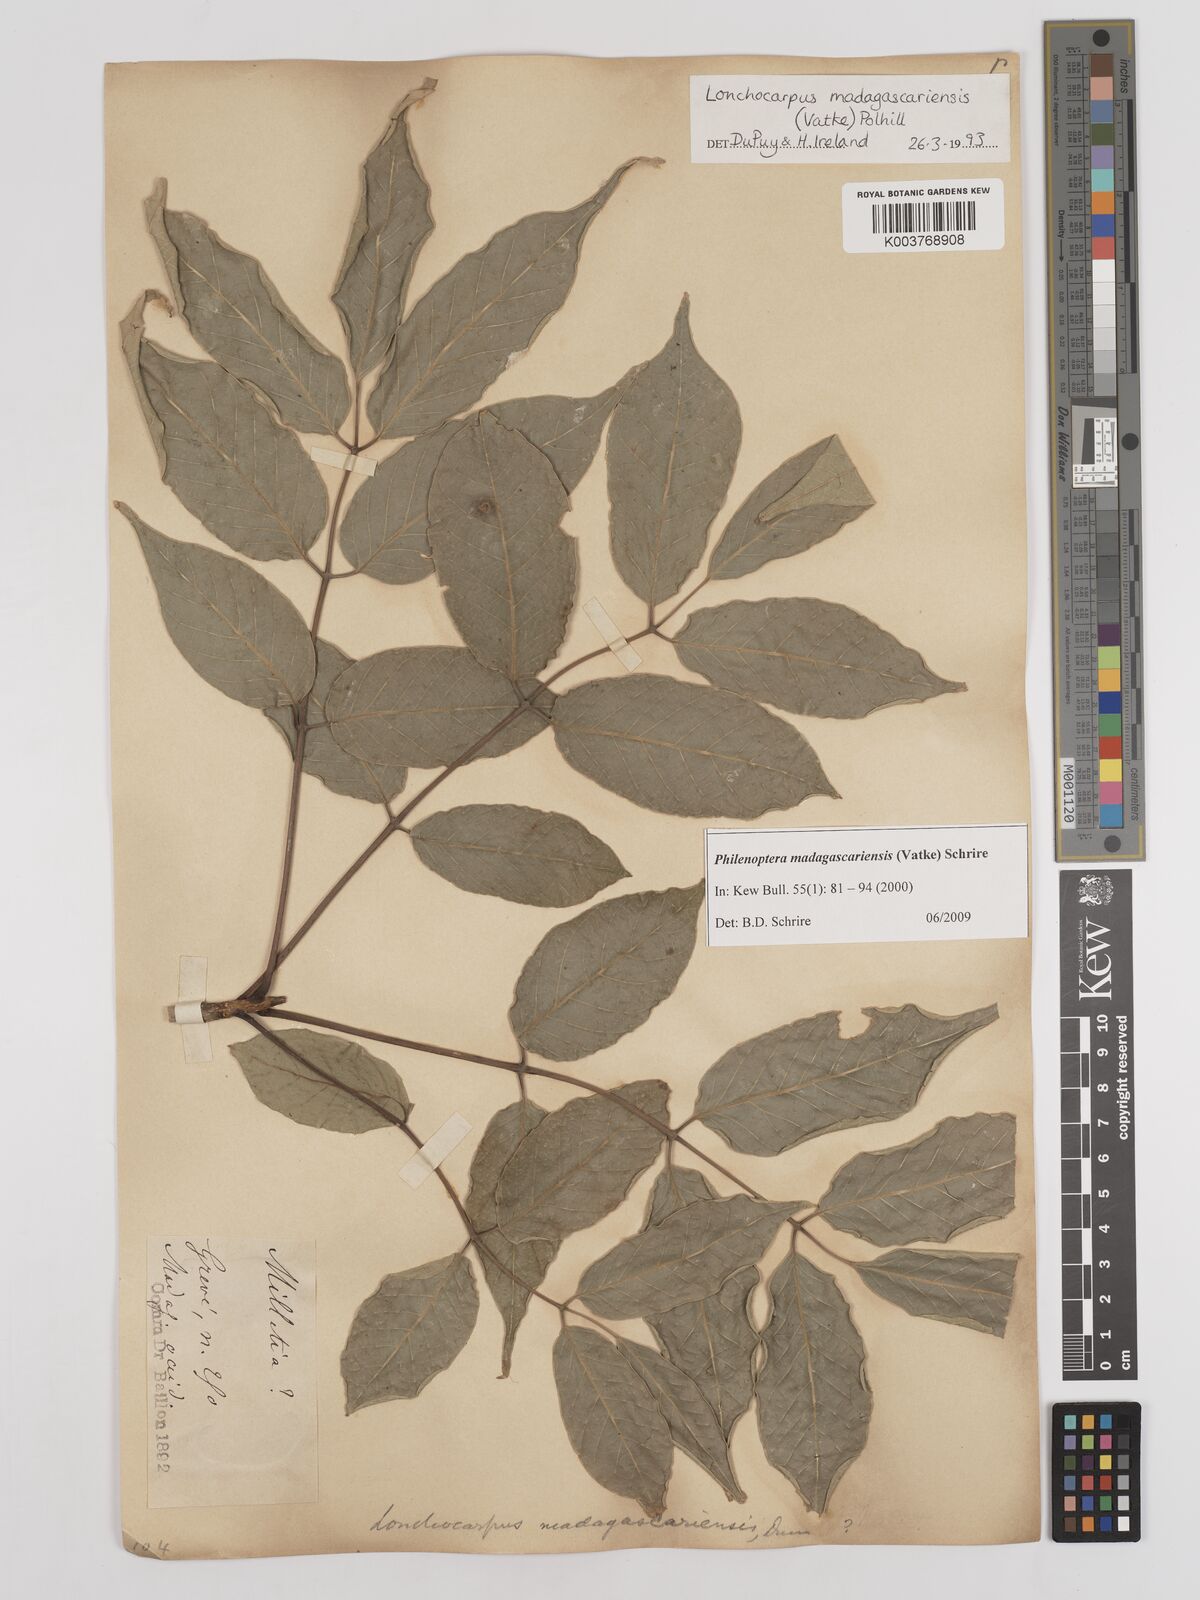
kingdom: Plantae
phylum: Tracheophyta
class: Magnoliopsida
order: Fabales
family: Fabaceae
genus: Lonchocarpus
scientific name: Lonchocarpus madagascariensis
